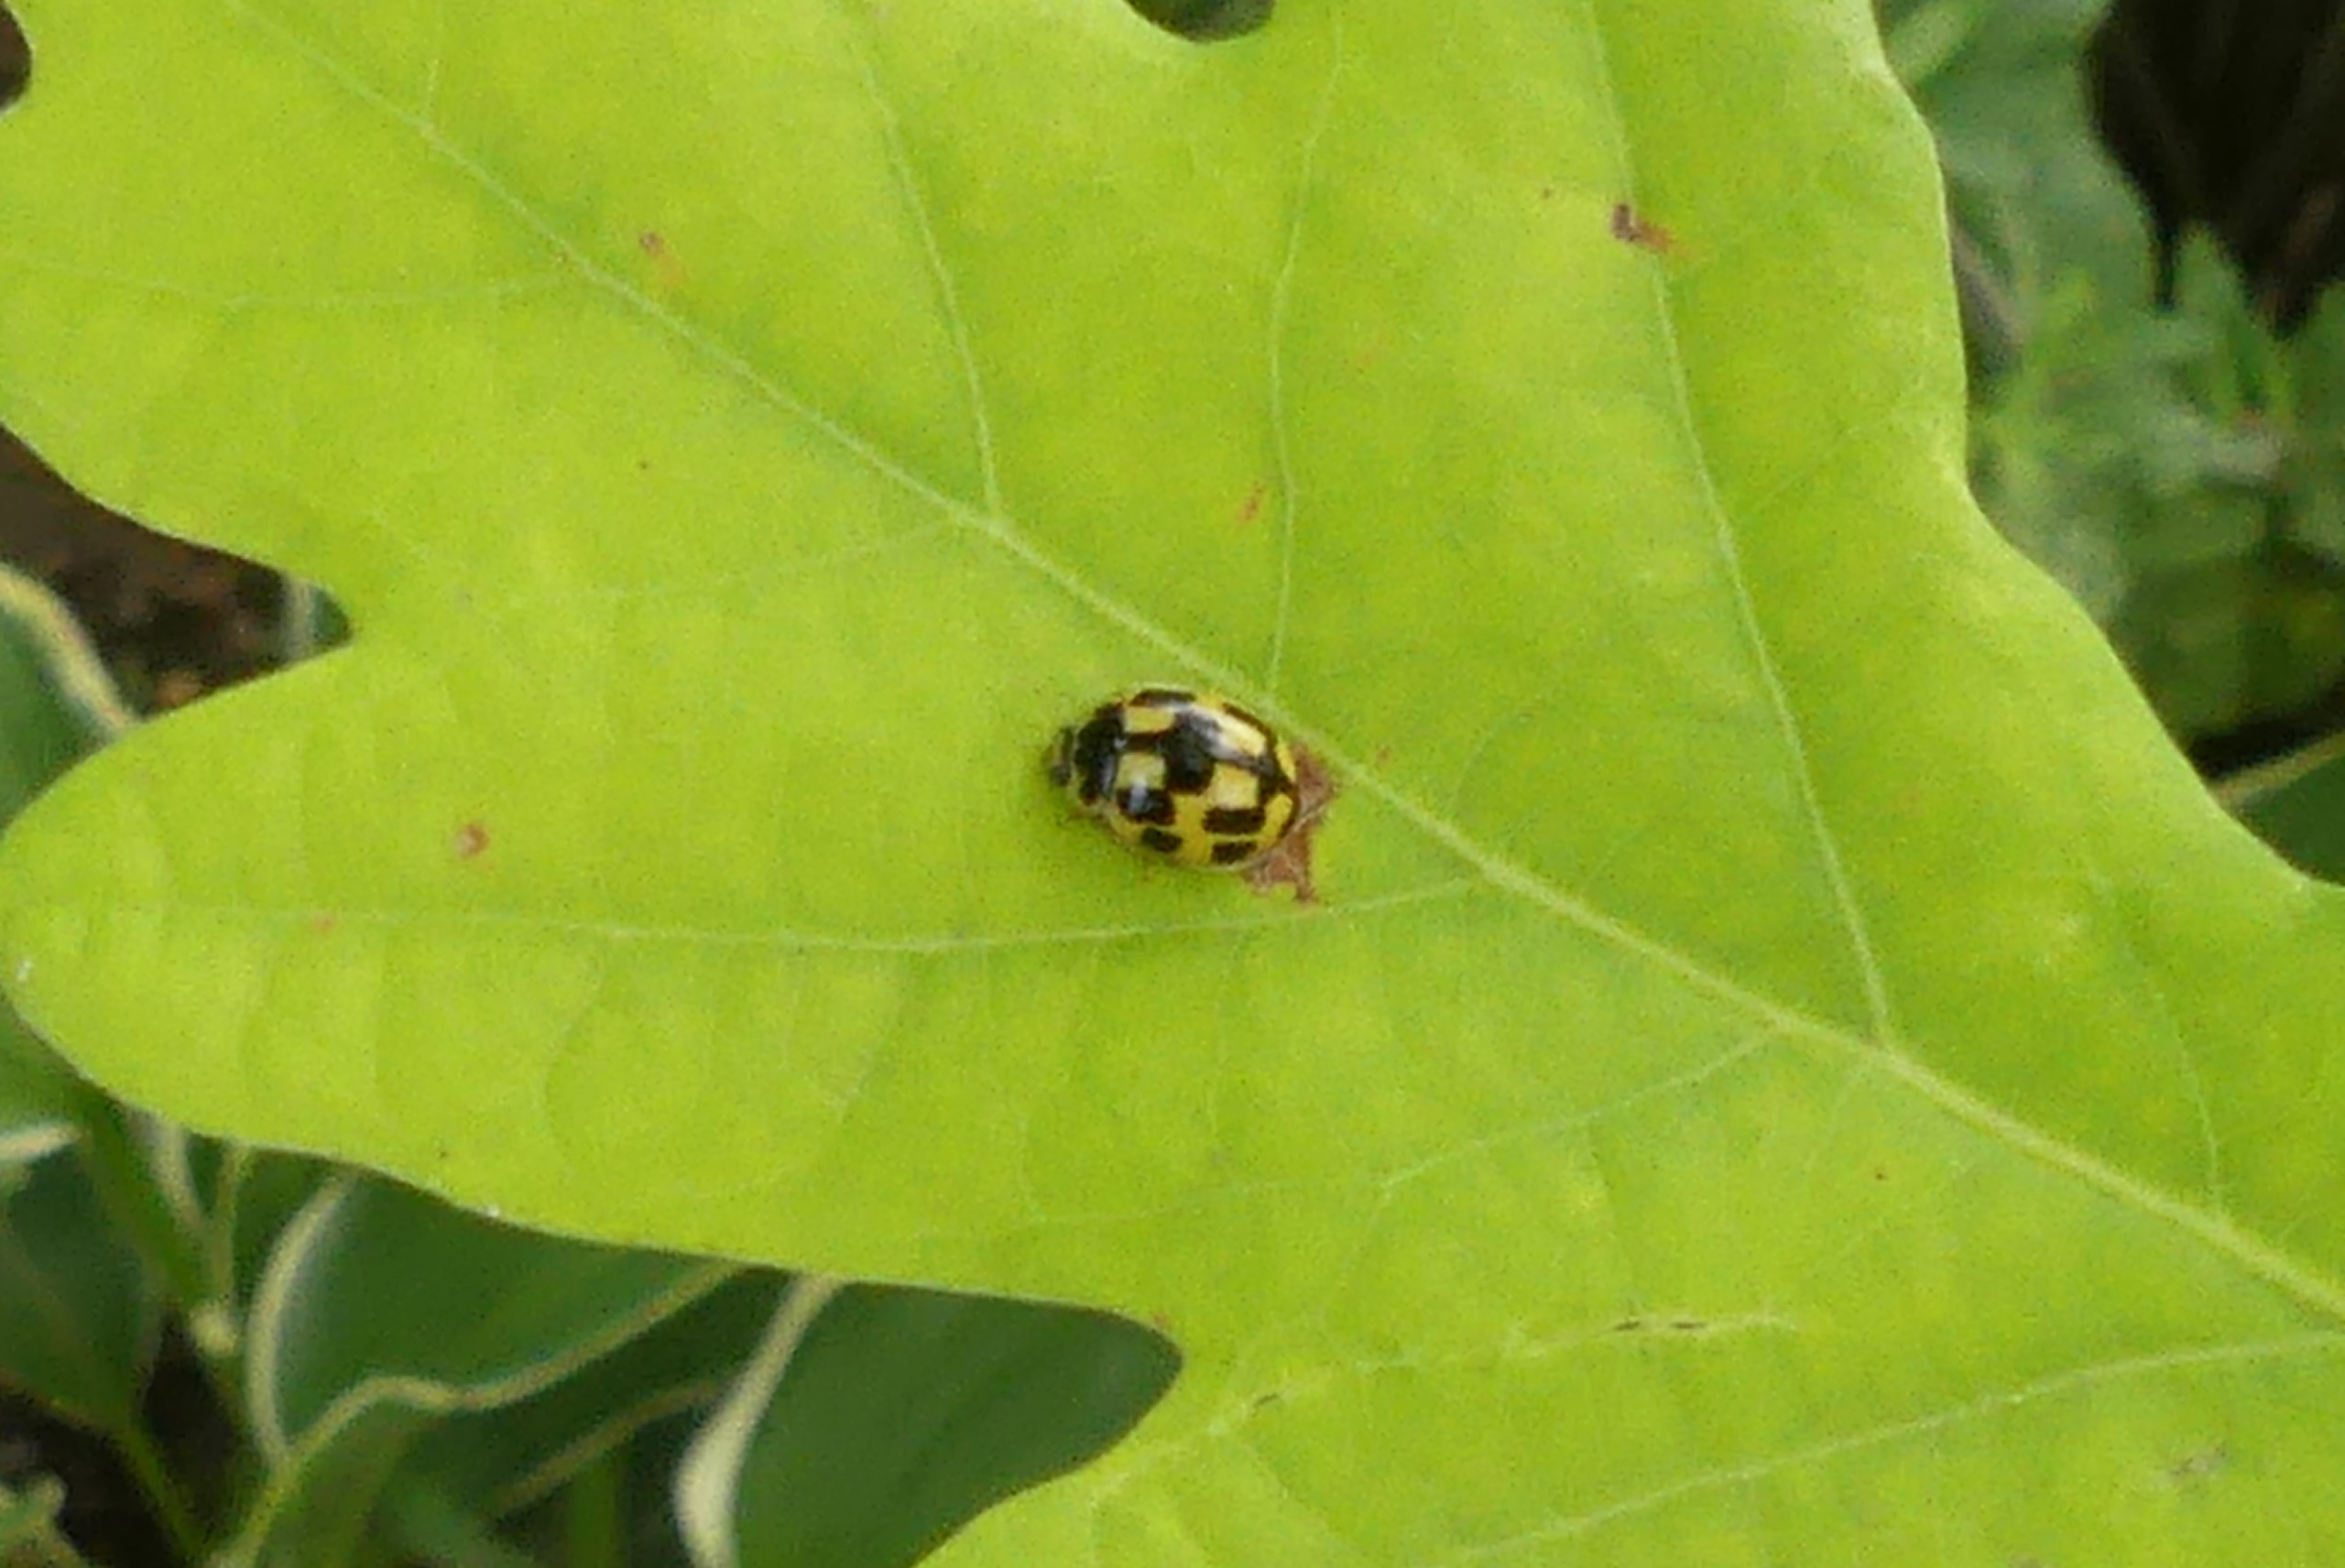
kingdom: Animalia
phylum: Arthropoda
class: Insecta
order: Coleoptera
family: Coccinellidae
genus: Propylaea
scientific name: Propylaea quatuordecimpunctata
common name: Skakbræt
